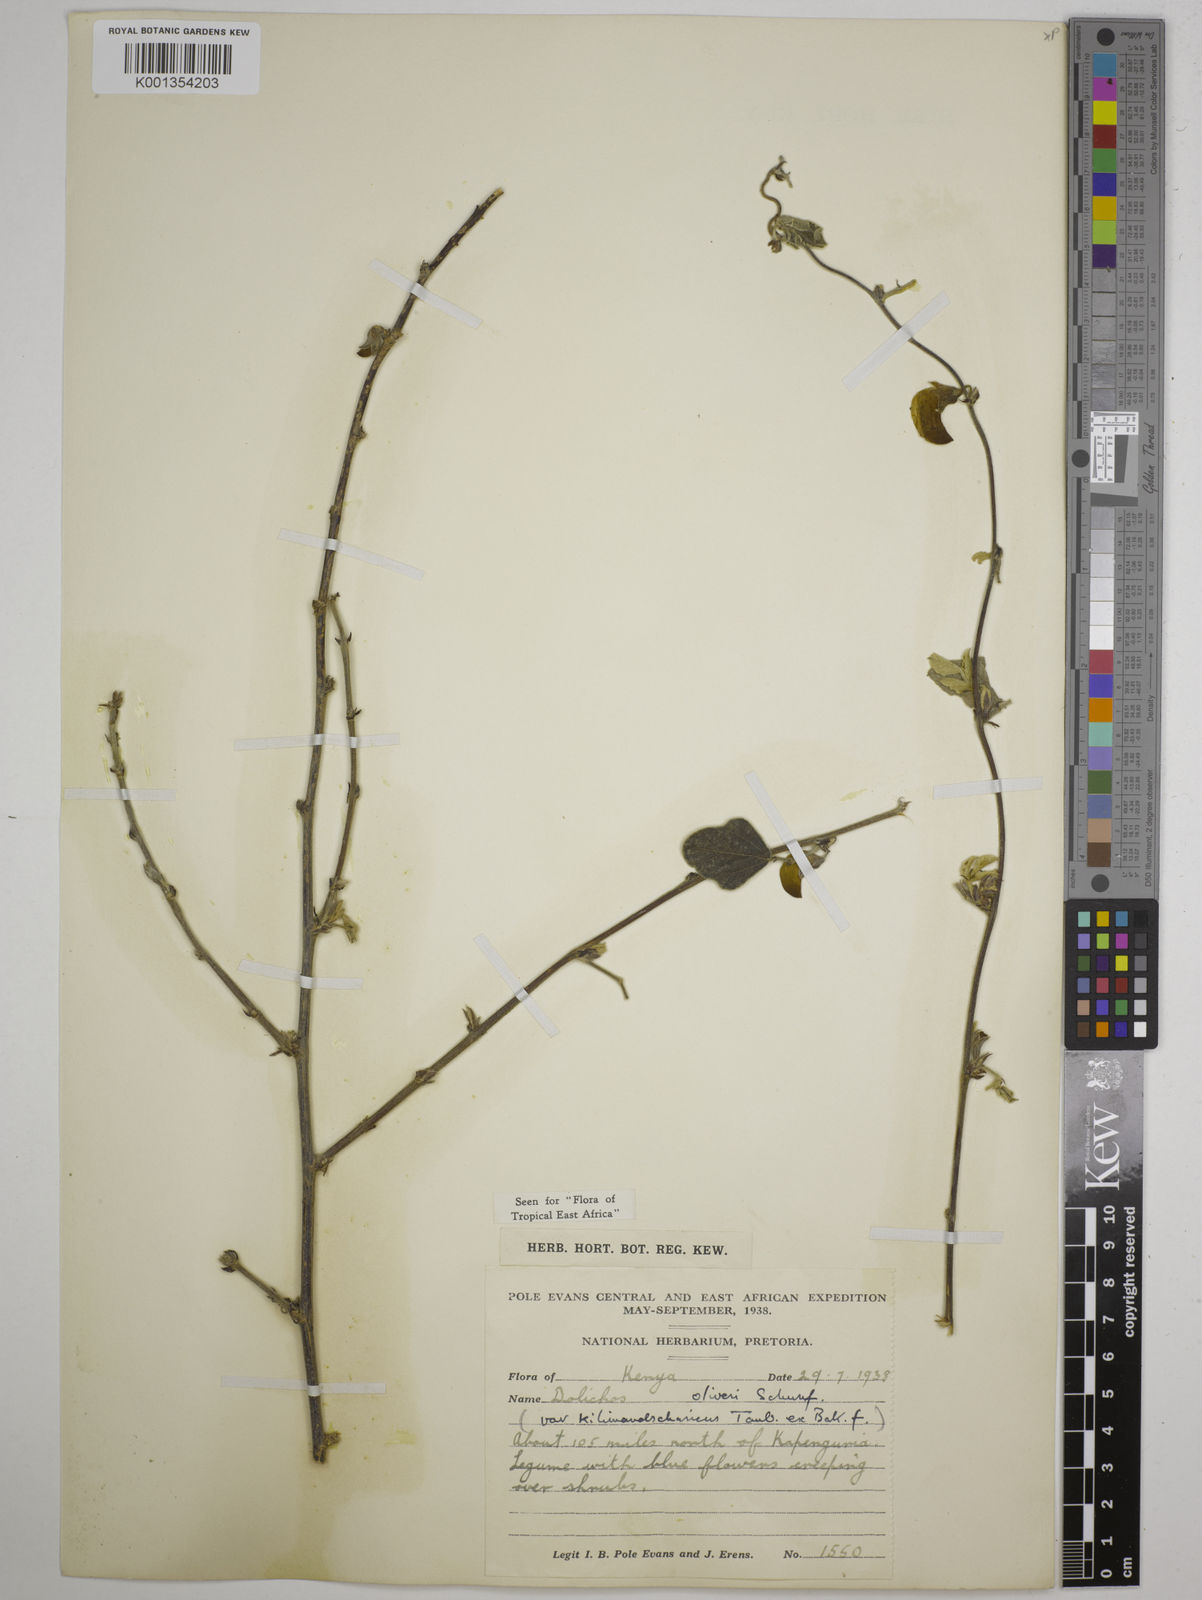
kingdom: Plantae
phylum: Tracheophyta
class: Magnoliopsida
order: Fabales
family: Fabaceae
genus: Dolichos
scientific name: Dolichos
